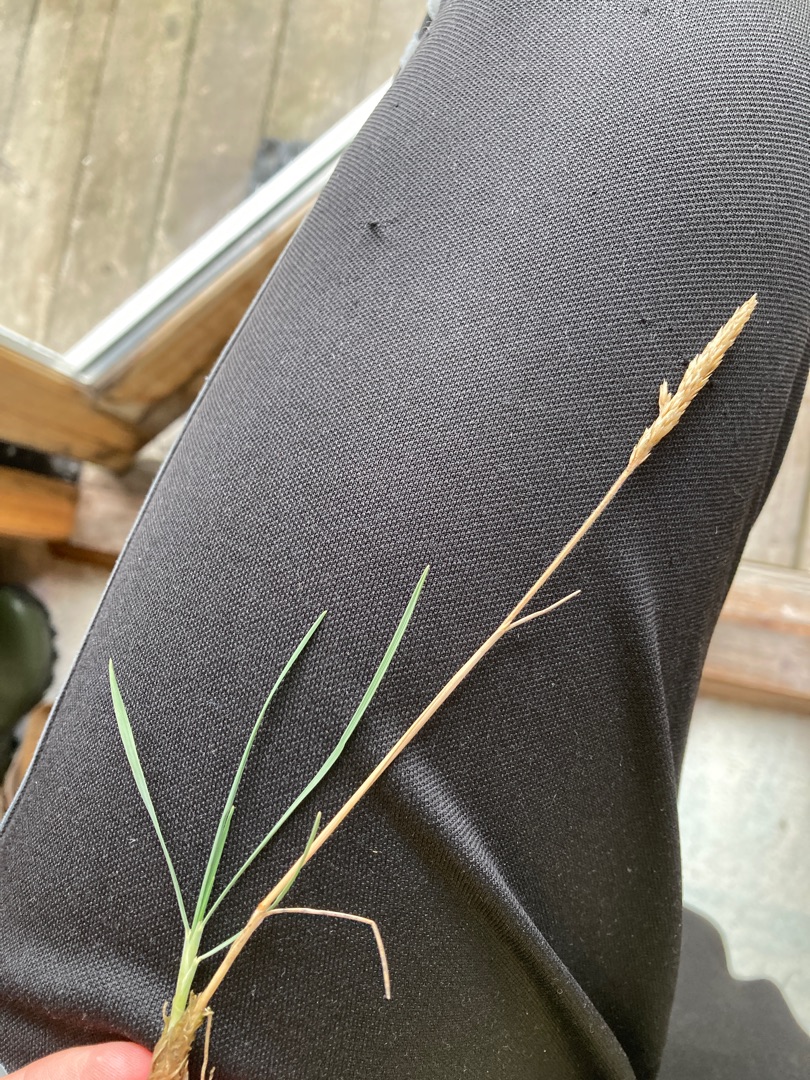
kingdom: Plantae
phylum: Tracheophyta
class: Liliopsida
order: Poales
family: Poaceae
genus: Koeleria
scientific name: Koeleria glauca
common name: Klit-kambunke
